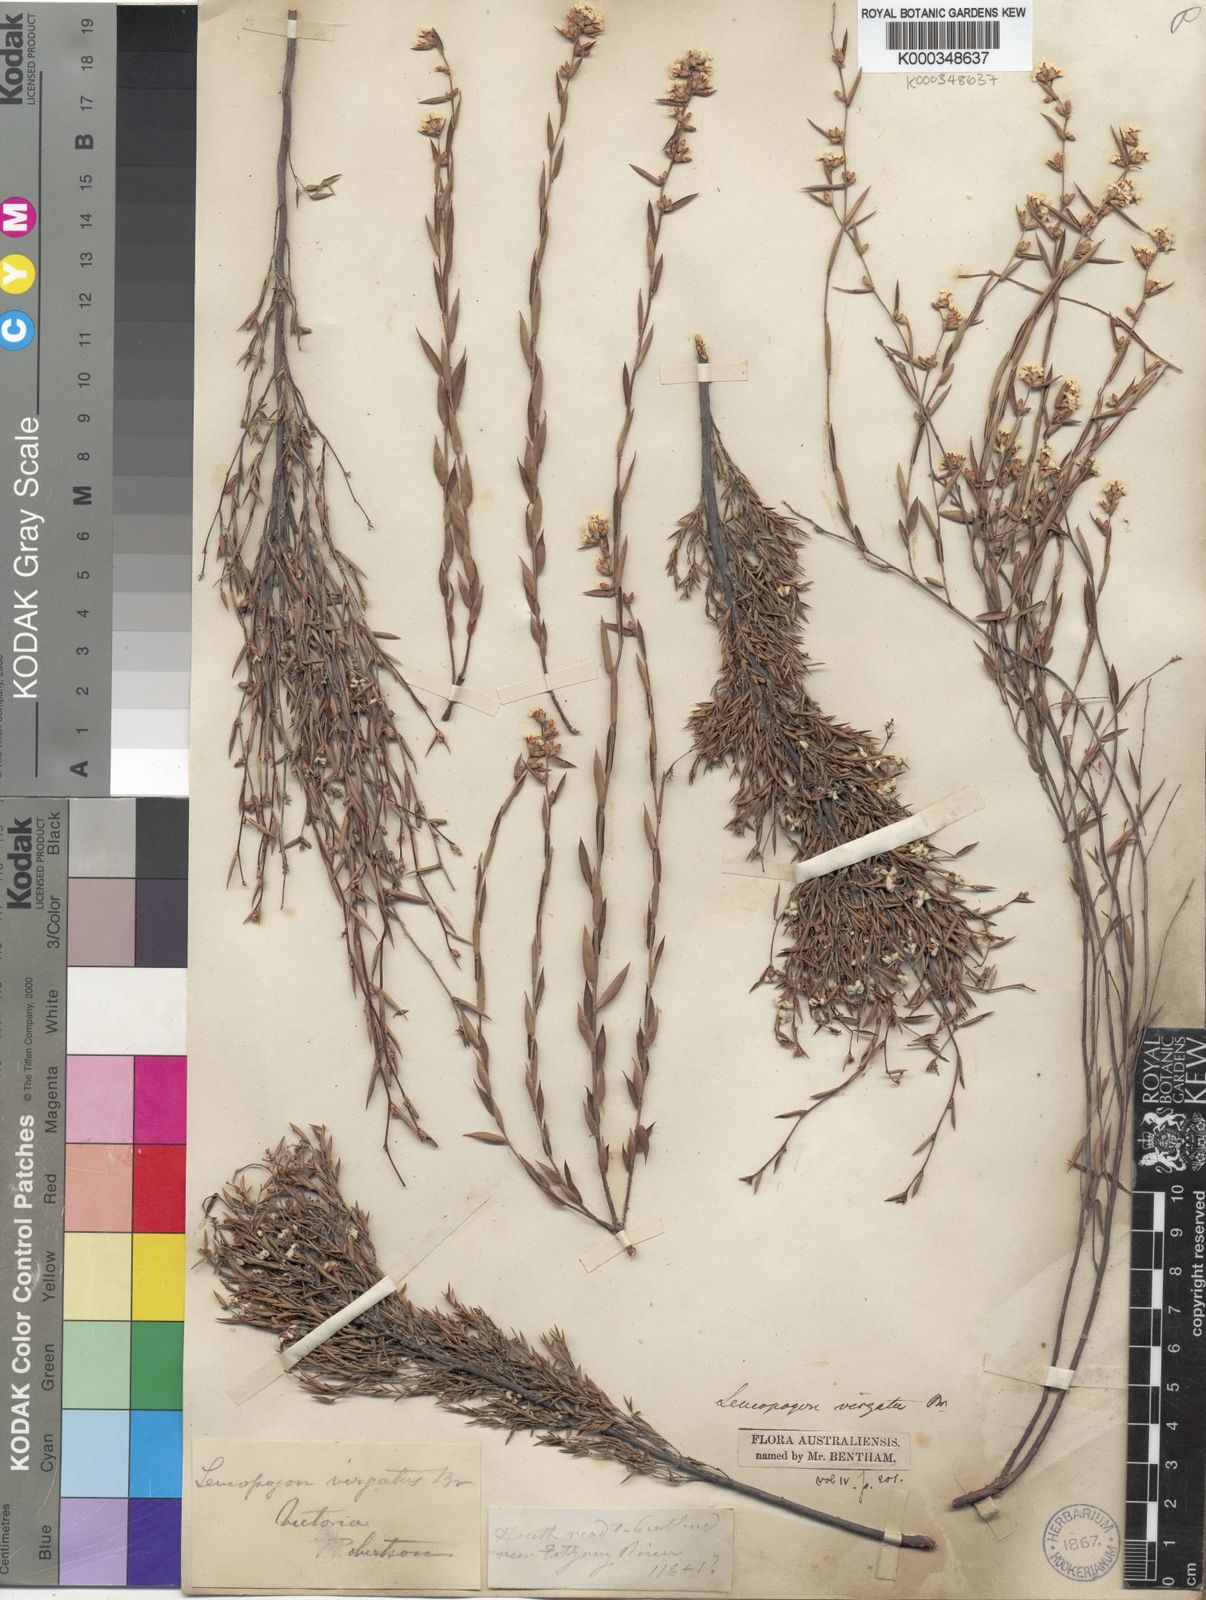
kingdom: Plantae
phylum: Tracheophyta
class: Magnoliopsida
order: Ericales
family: Ericaceae
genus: Leucopogon
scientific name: Leucopogon virgatus
